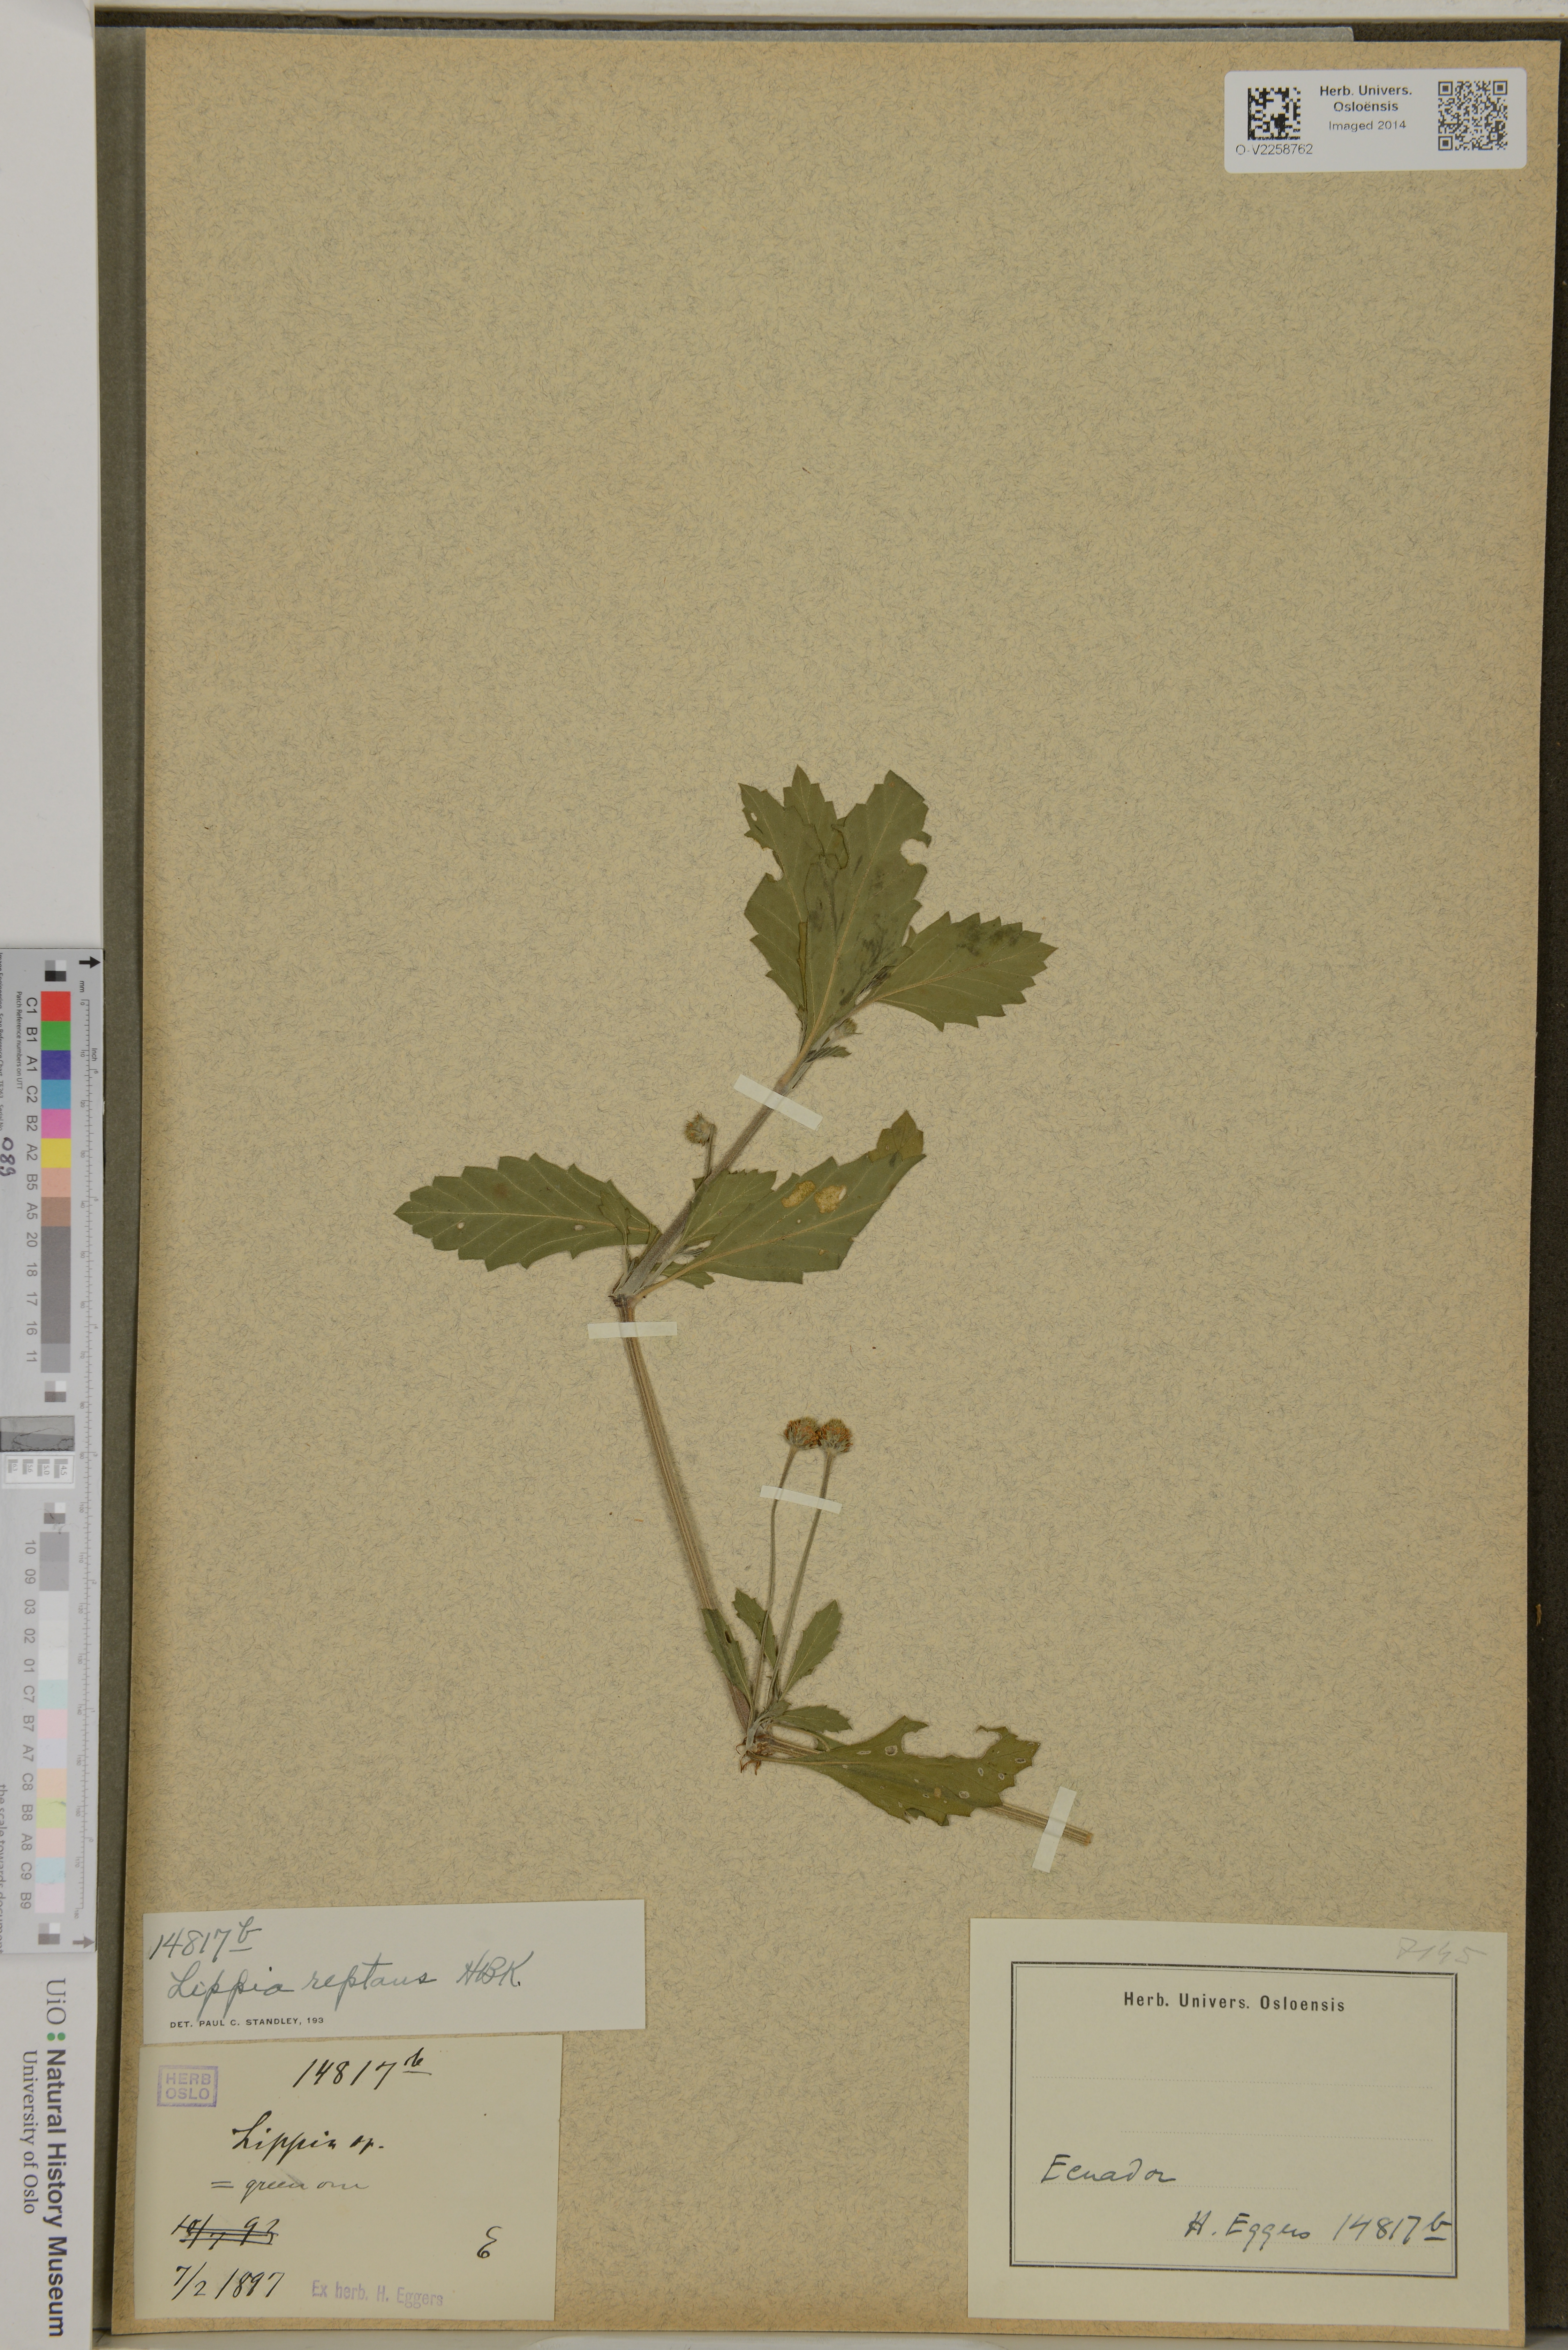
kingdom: Plantae
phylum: Tracheophyta
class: Magnoliopsida
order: Lamiales
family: Verbenaceae
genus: Phyla
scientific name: Phyla nodiflora
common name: Frogfruit
